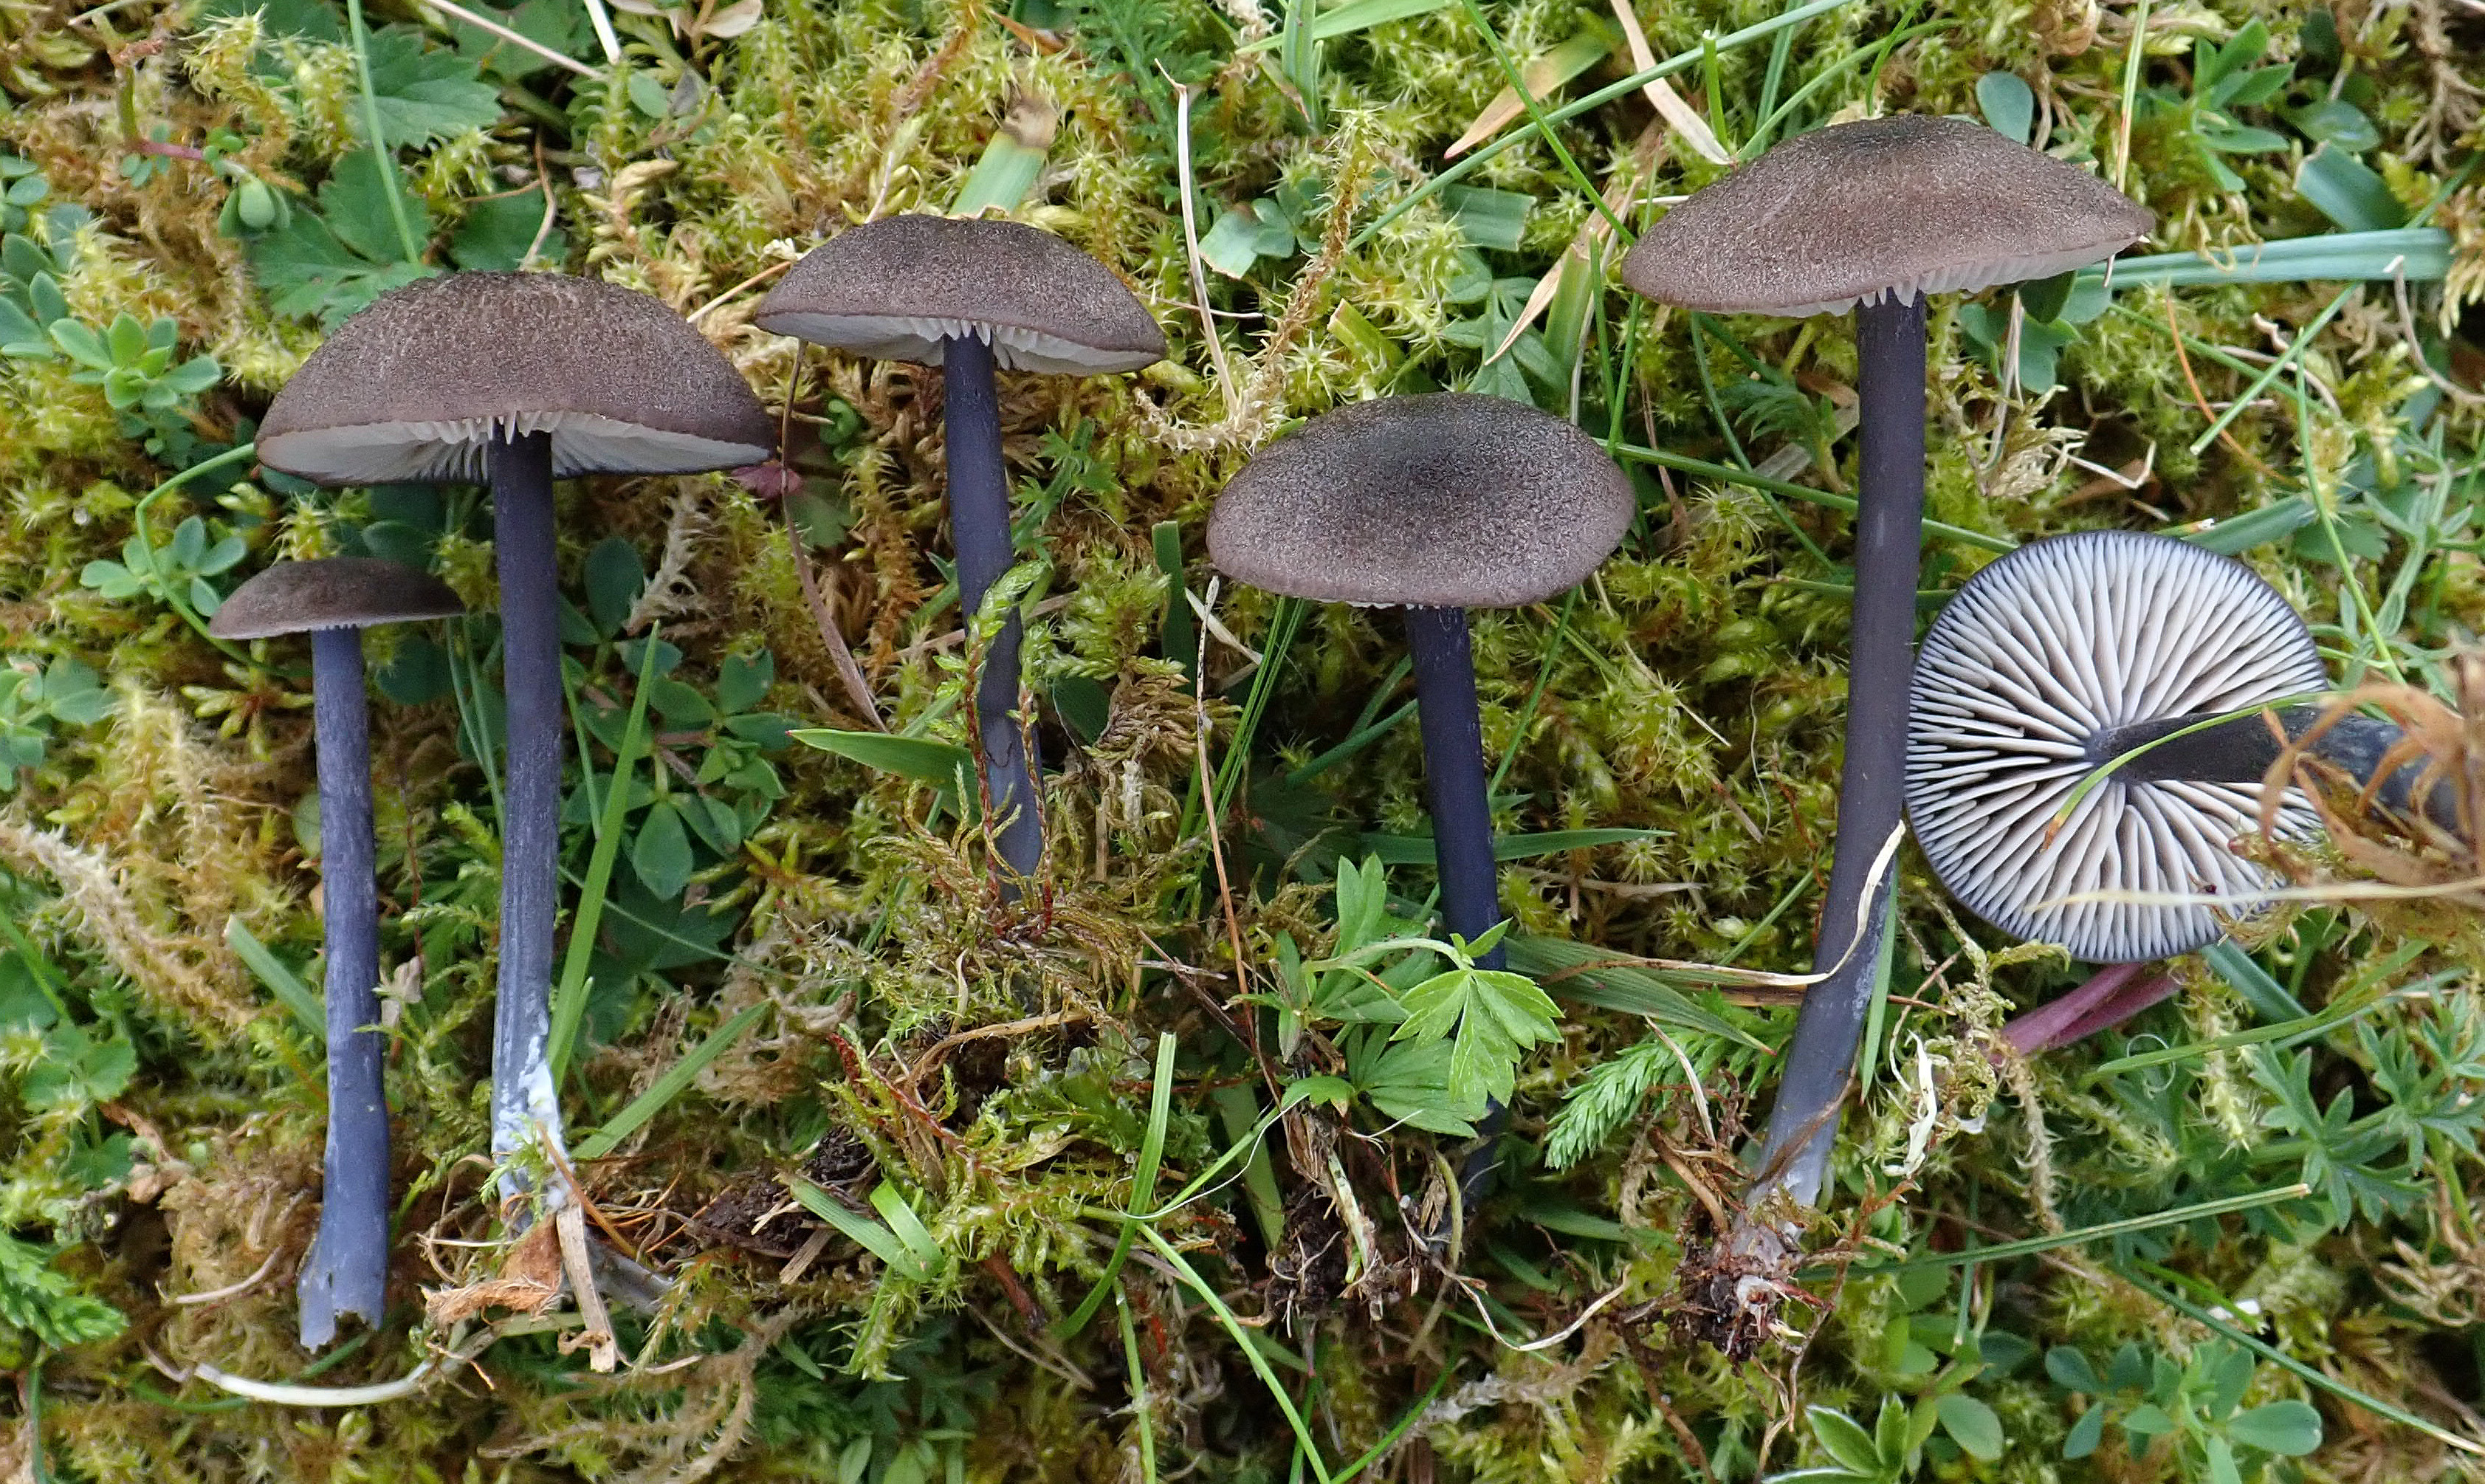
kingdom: Fungi
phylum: Basidiomycota
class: Agaricomycetes
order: Agaricales
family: Entolomataceae
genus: Entoloma
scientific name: Entoloma atrocoeruleum
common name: Navy pinkgill
